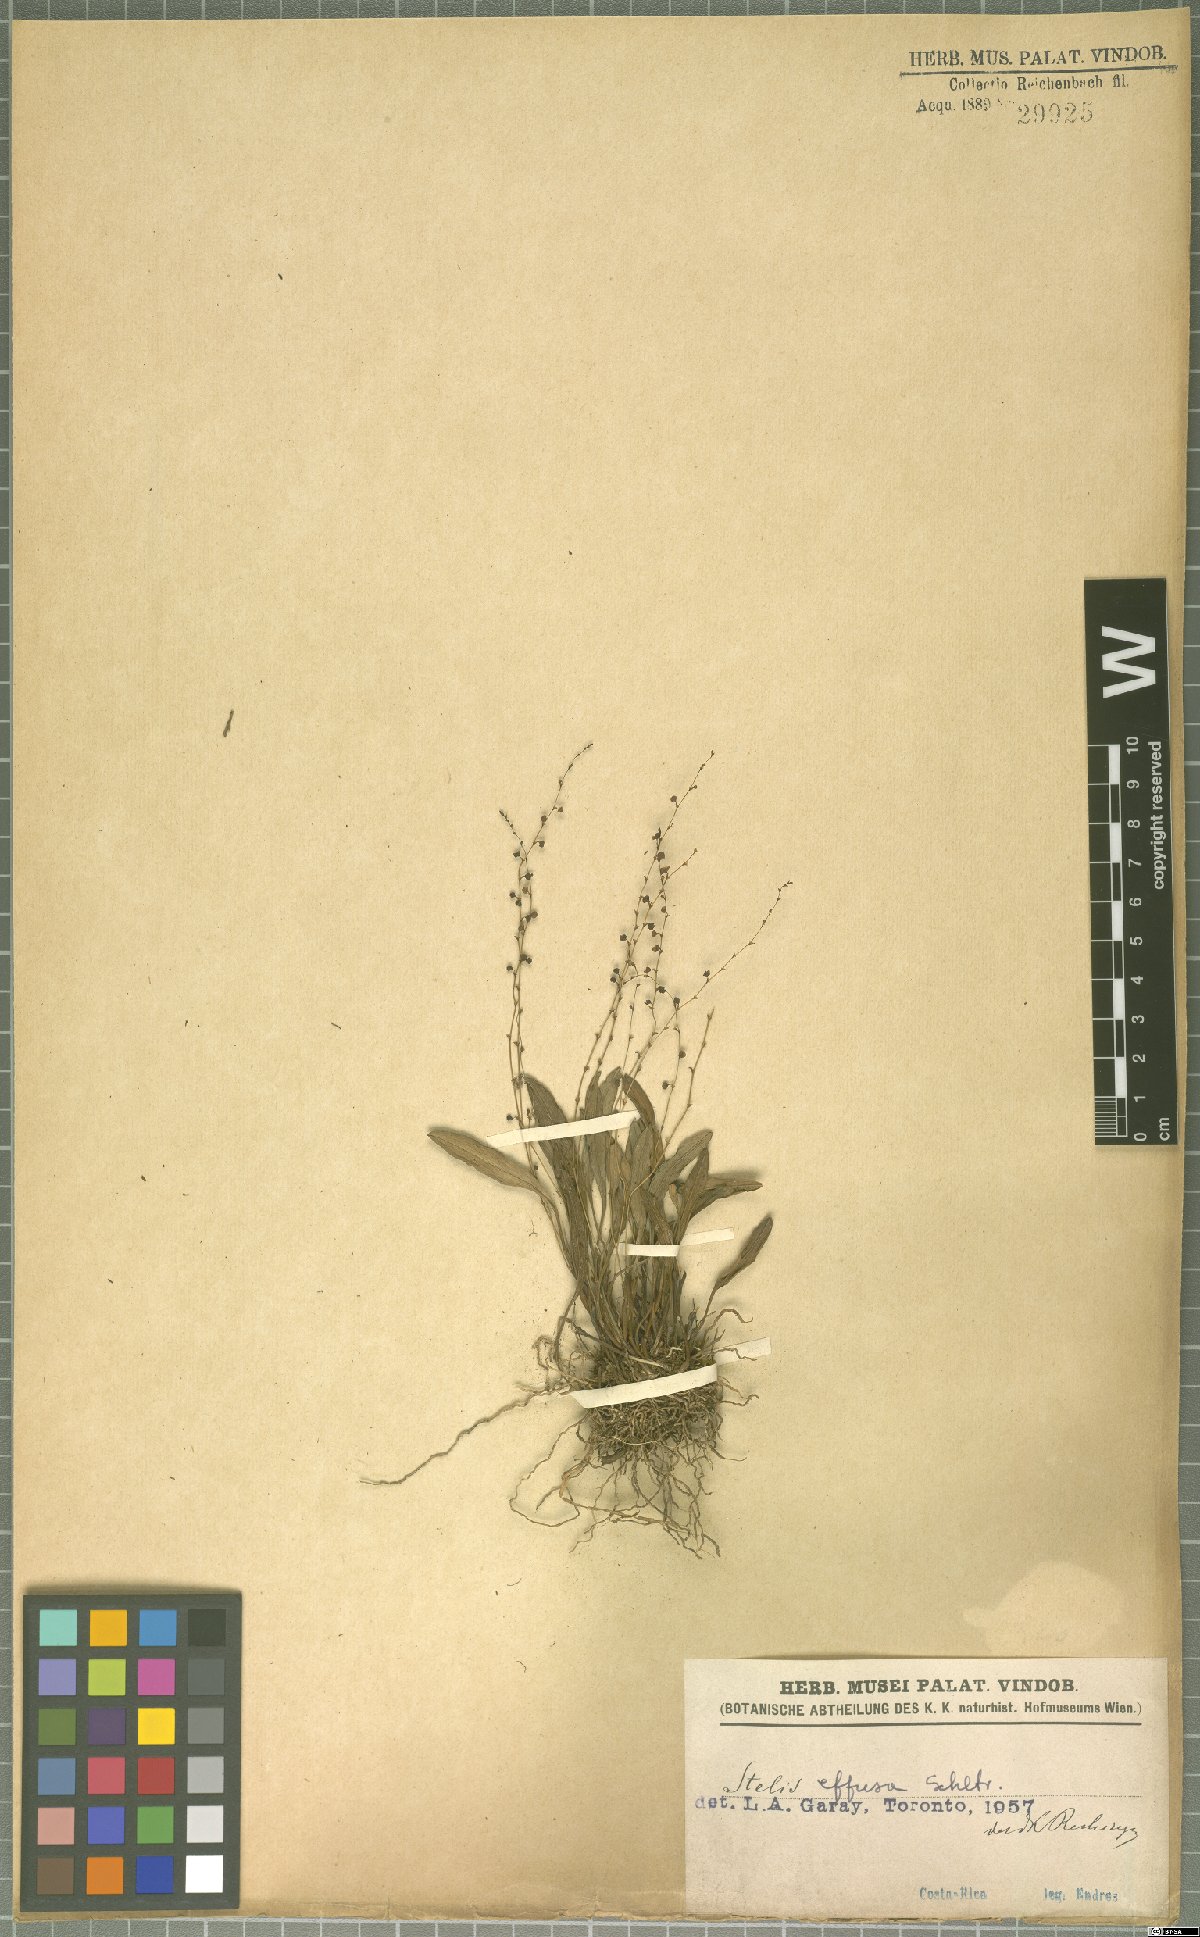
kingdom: Plantae
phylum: Tracheophyta
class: Liliopsida
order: Asparagales
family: Orchidaceae
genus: Stelis
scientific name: Stelis effusa
